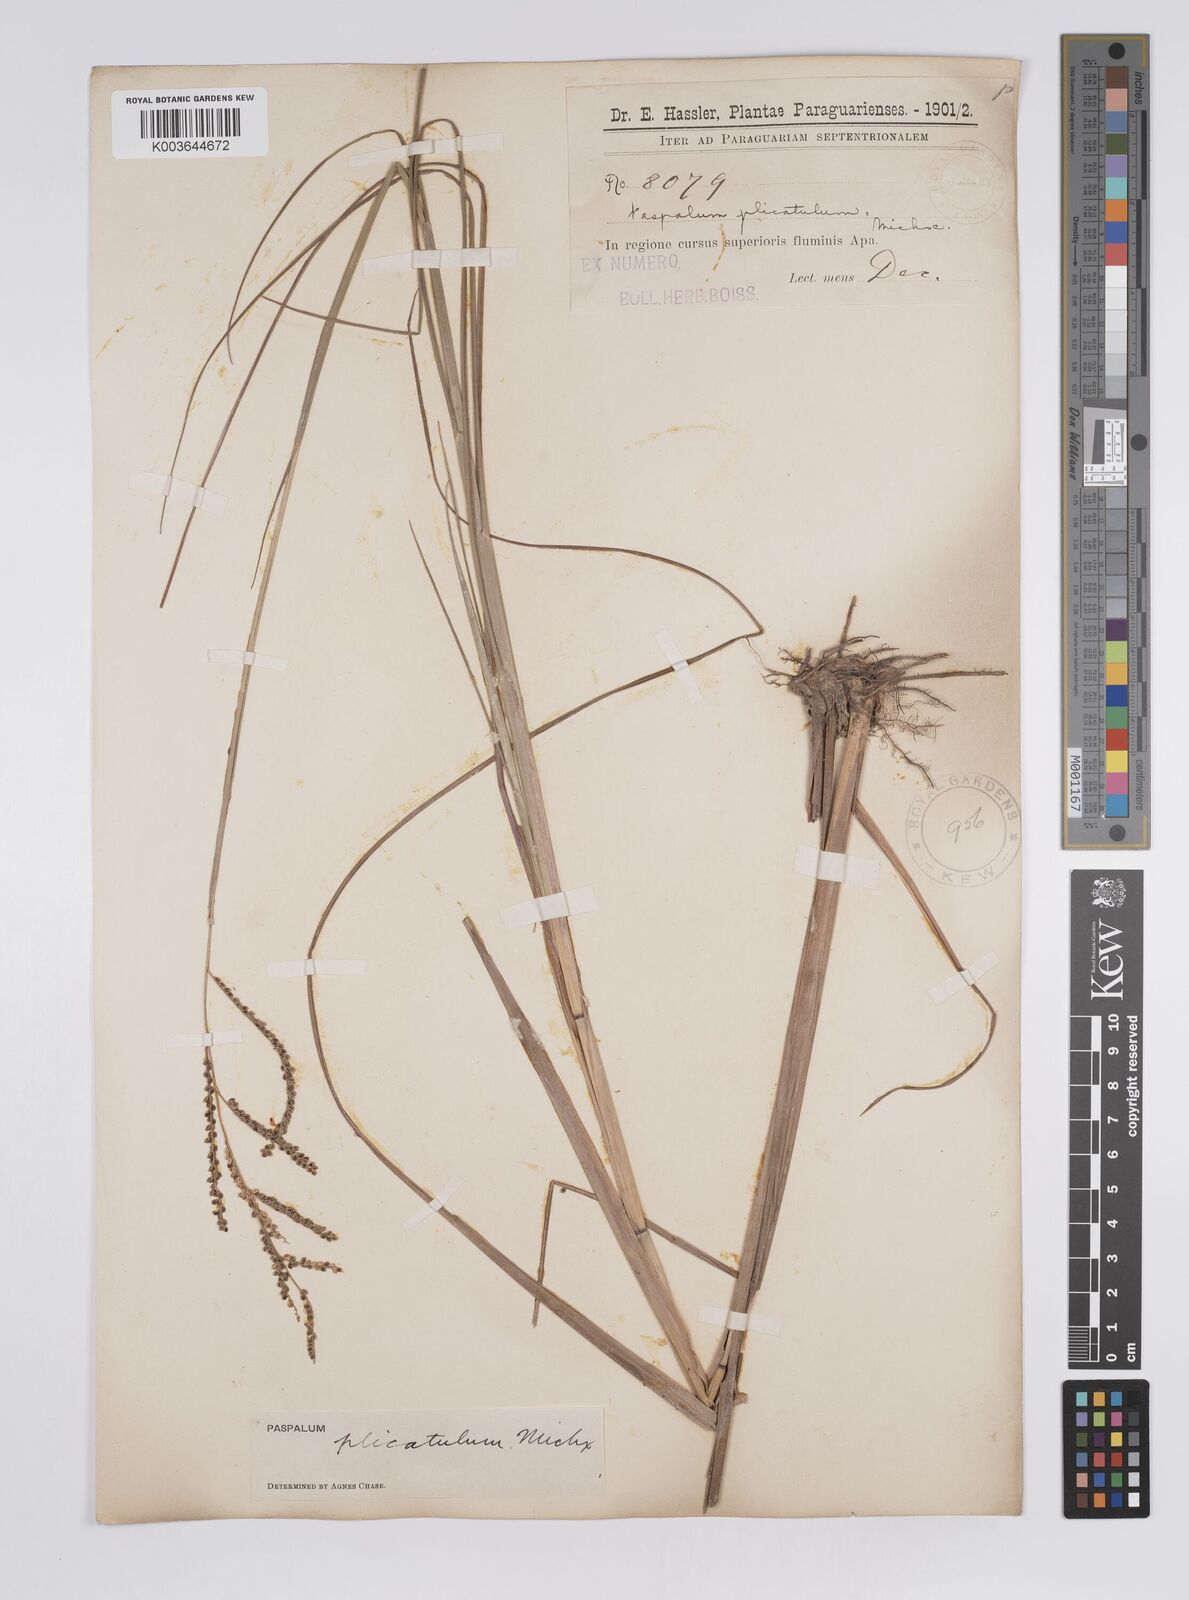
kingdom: Plantae
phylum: Tracheophyta
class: Liliopsida
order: Poales
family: Poaceae
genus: Paspalum
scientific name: Paspalum plicatulum
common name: Top paspalum
